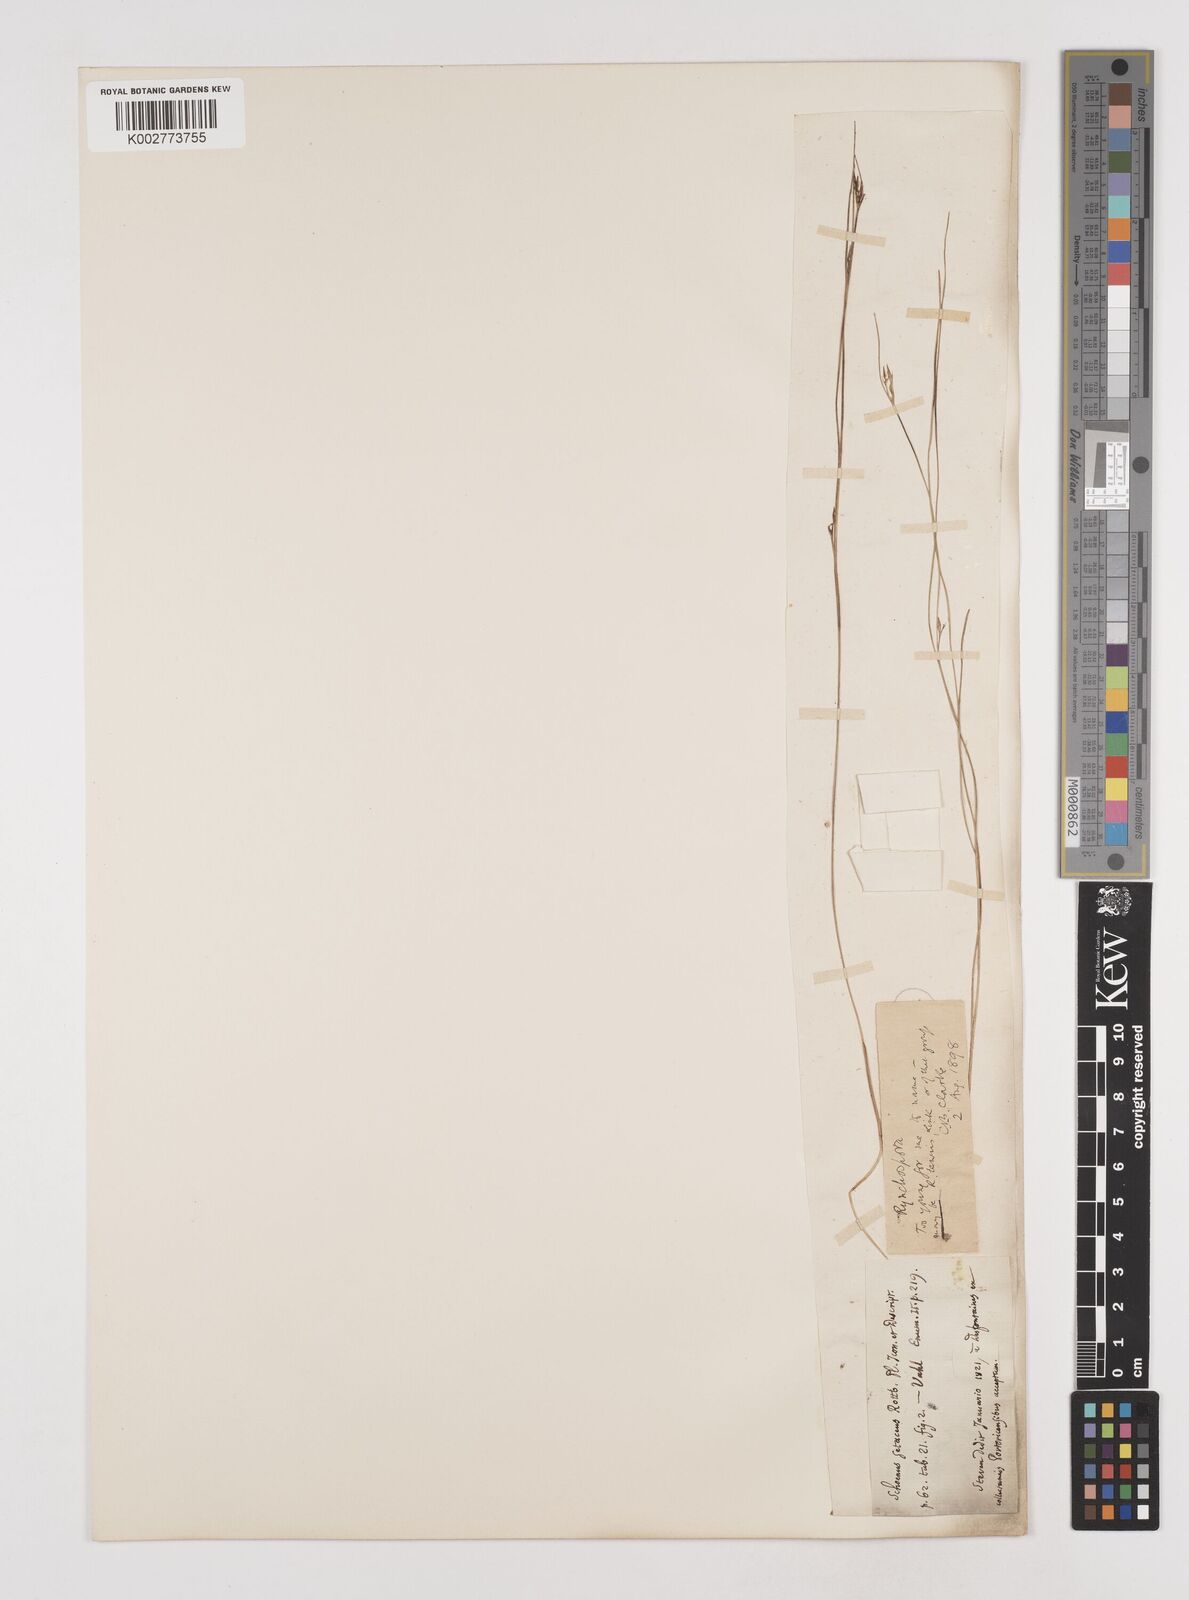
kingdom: Plantae
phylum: Tracheophyta
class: Liliopsida
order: Poales
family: Cyperaceae
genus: Rhynchospora
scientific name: Rhynchospora divergens
